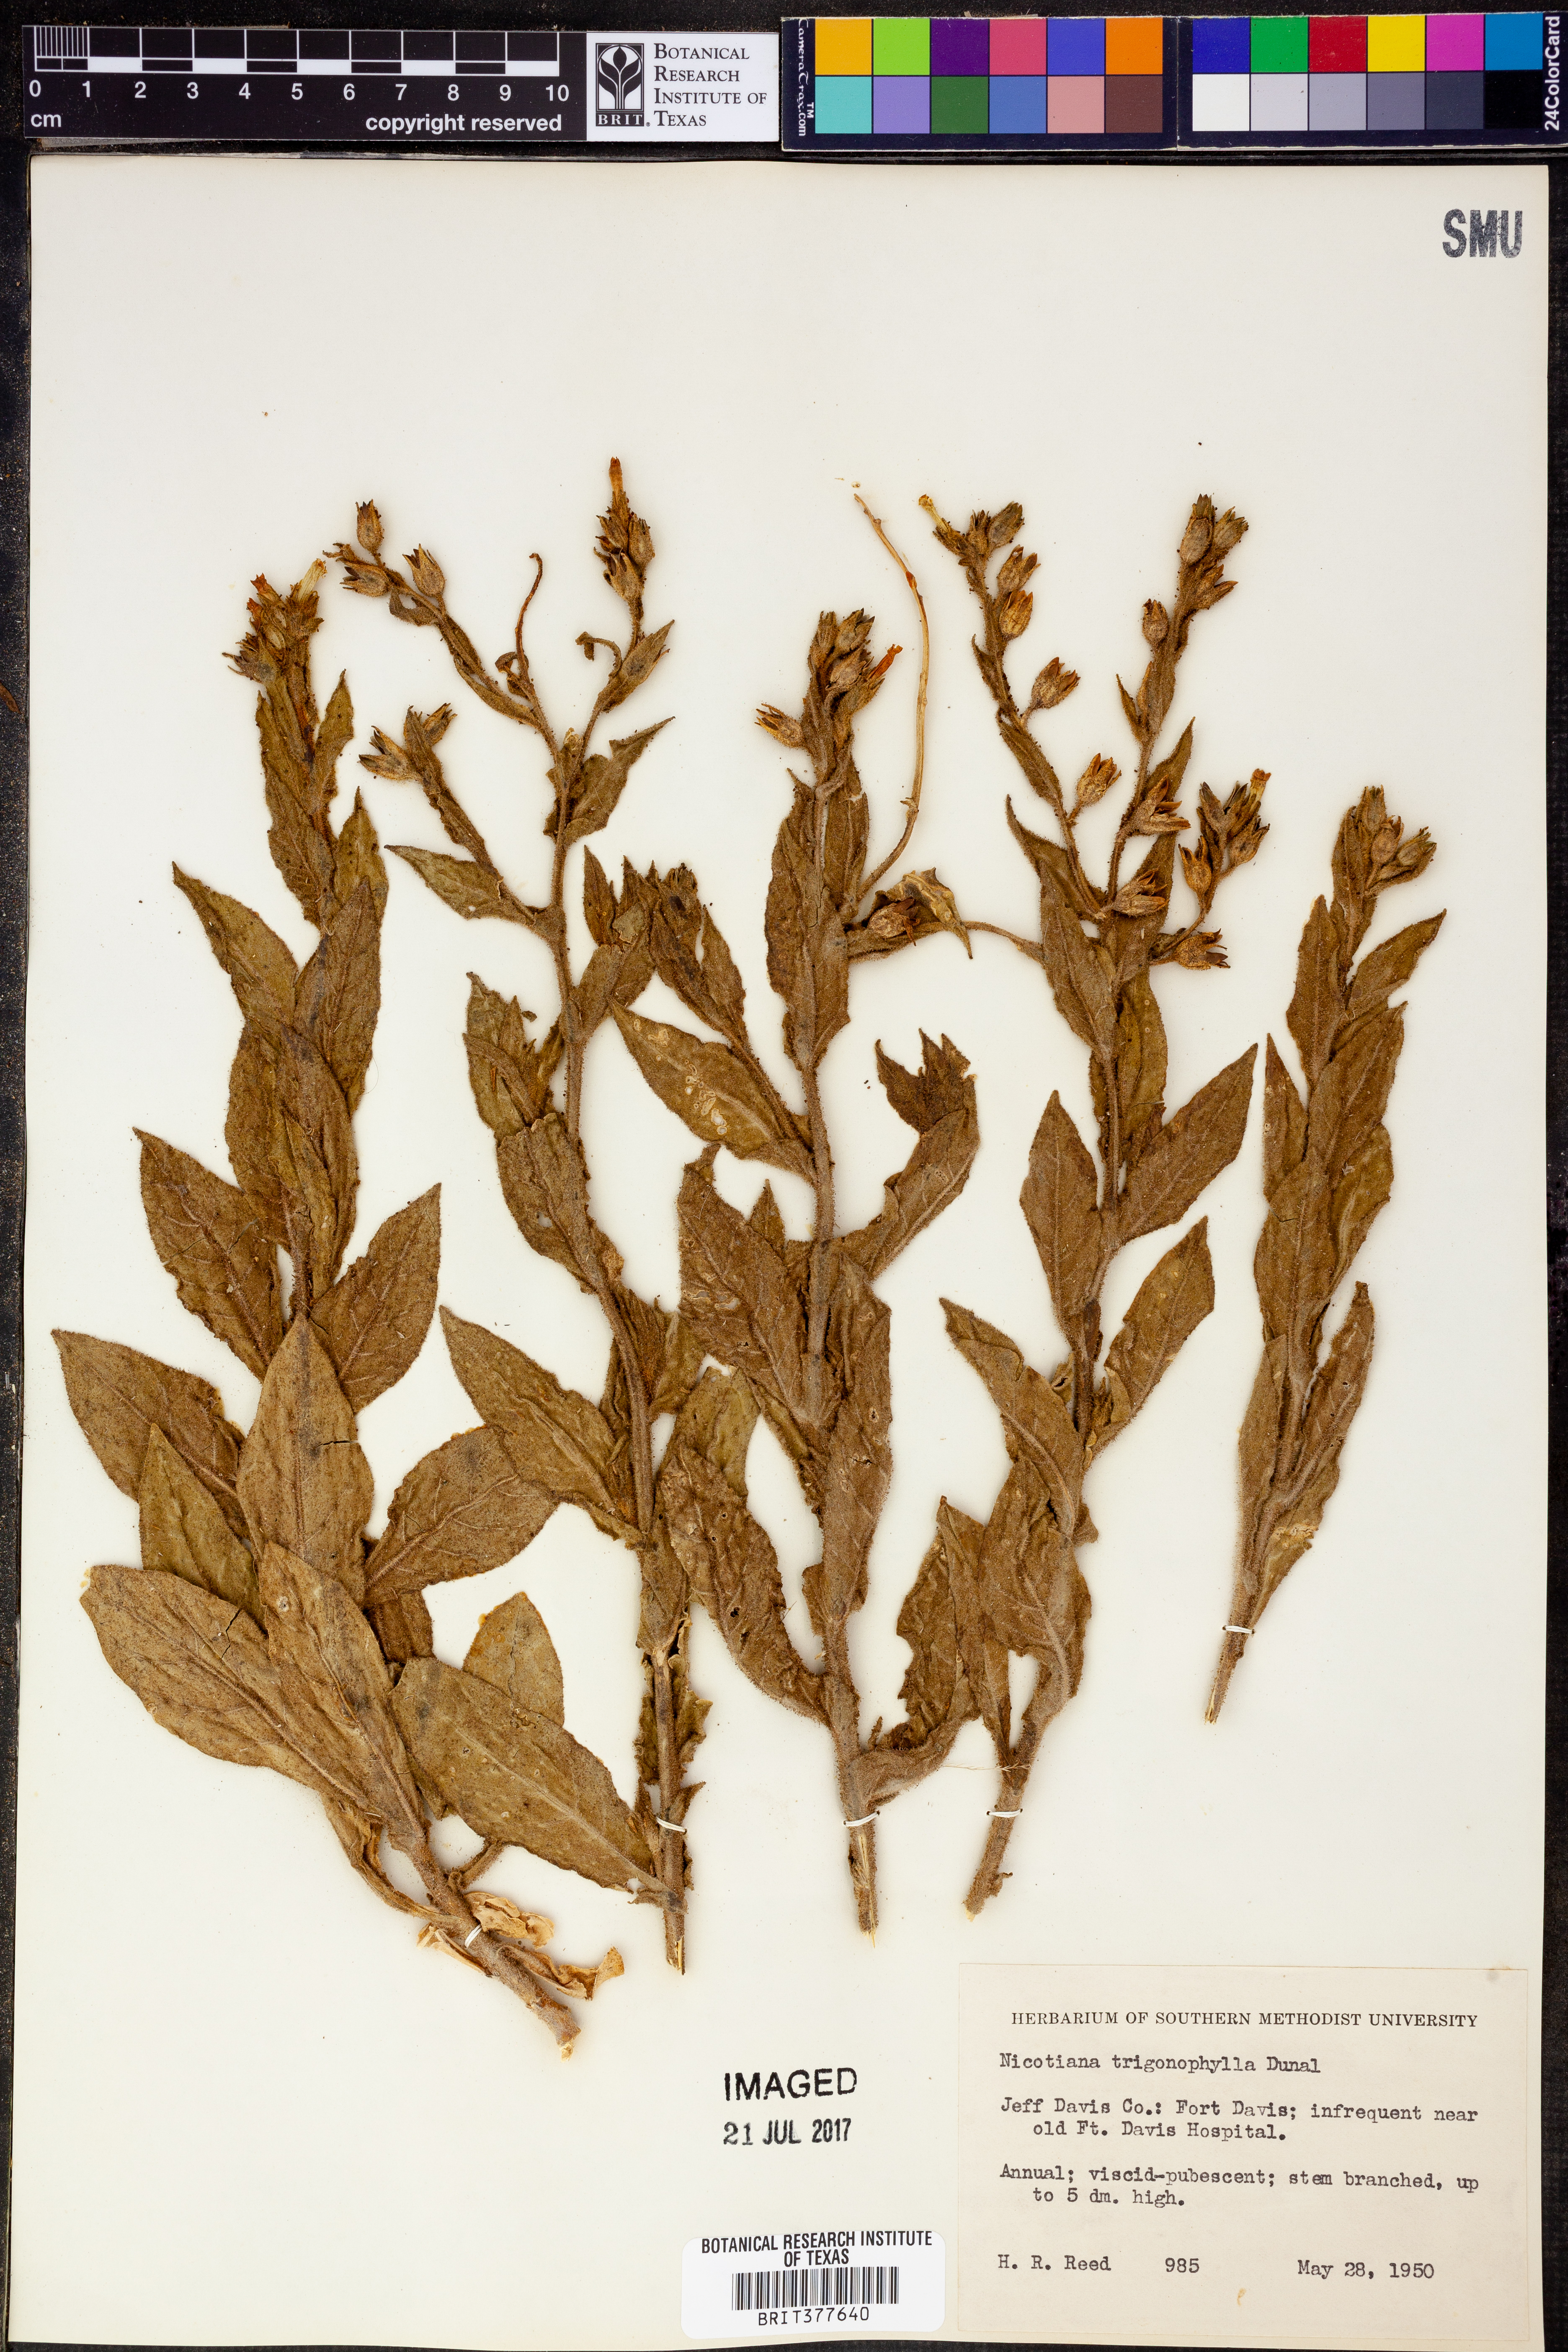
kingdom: Plantae
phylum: Tracheophyta
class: Magnoliopsida
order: Solanales
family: Solanaceae
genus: Nicotiana
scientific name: Nicotiana obtusifolia
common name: Desert tobacco
